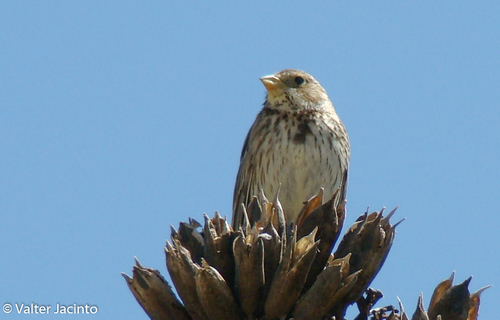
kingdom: Animalia
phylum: Chordata
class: Aves
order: Passeriformes
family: Emberizidae
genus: Emberiza
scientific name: Emberiza calandra
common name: Corn bunting
